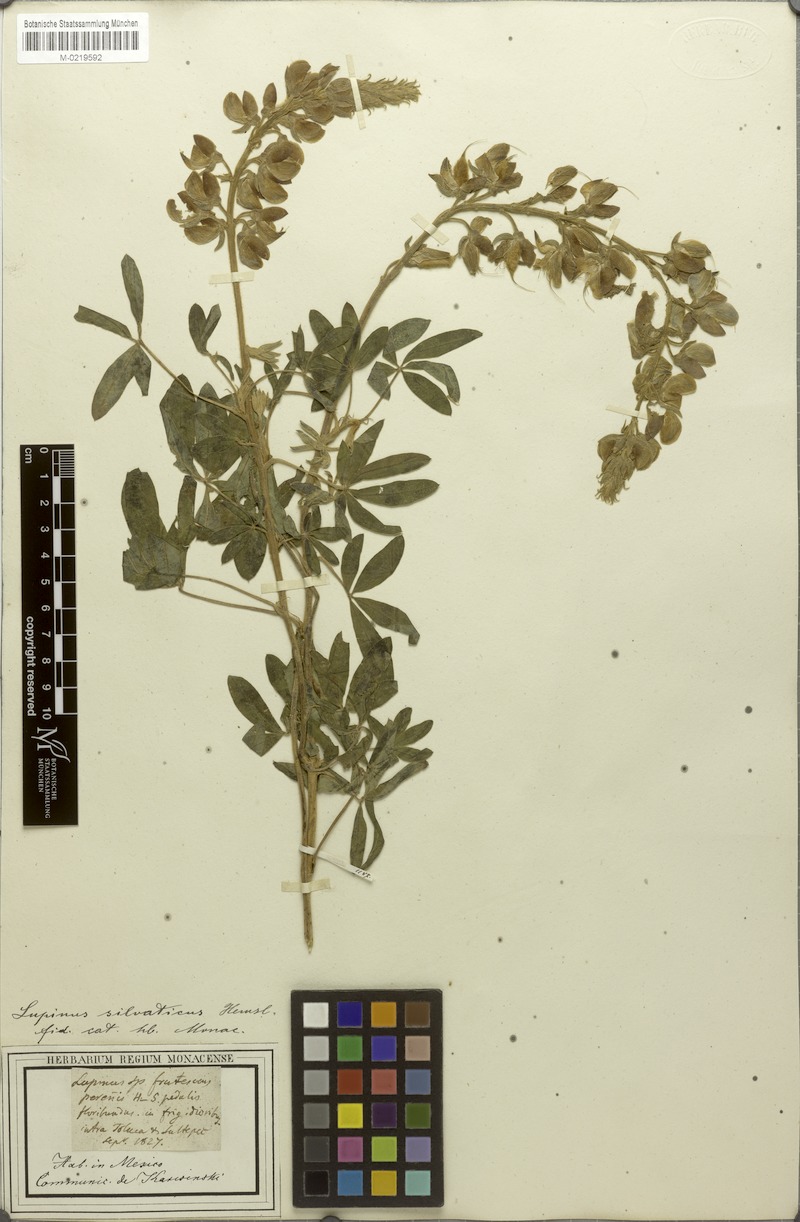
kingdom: Plantae
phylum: Tracheophyta
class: Magnoliopsida
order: Fabales
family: Fabaceae
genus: Lupinus
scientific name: Lupinus montanus
